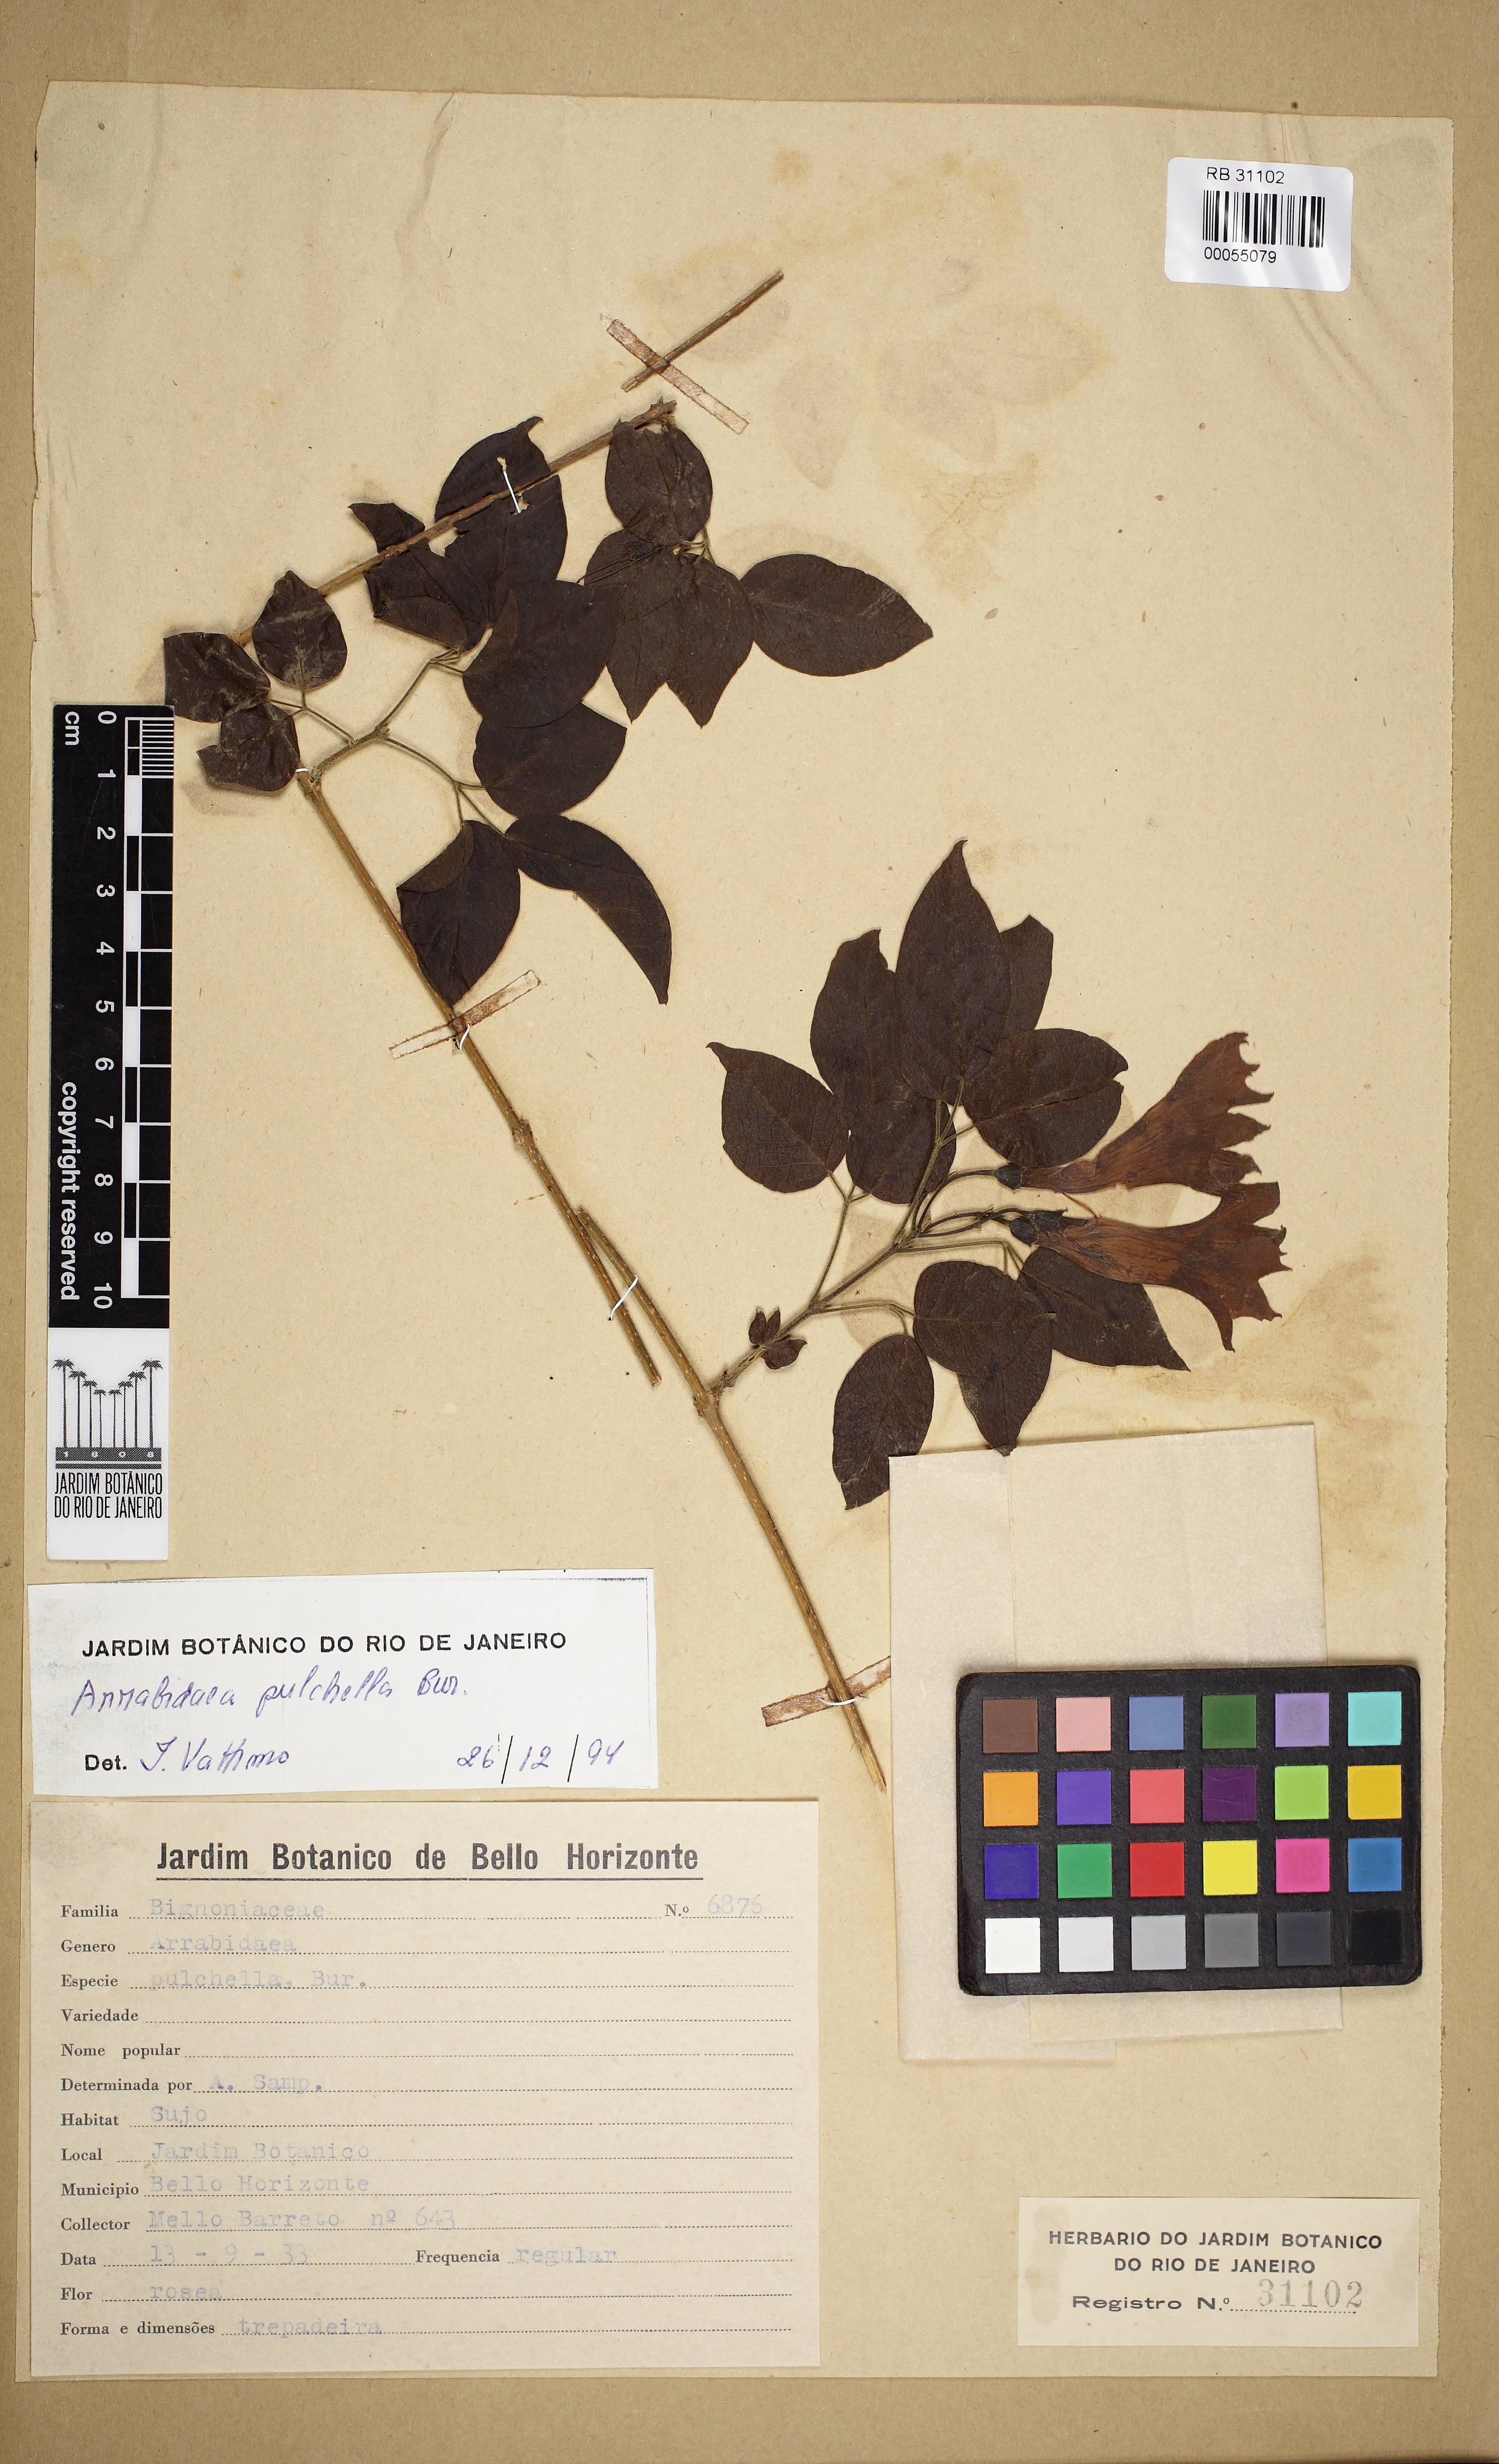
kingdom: Plantae
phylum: Tracheophyta
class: Magnoliopsida
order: Lamiales
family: Bignoniaceae
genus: Cuspidaria
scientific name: Cuspidaria pulchella
